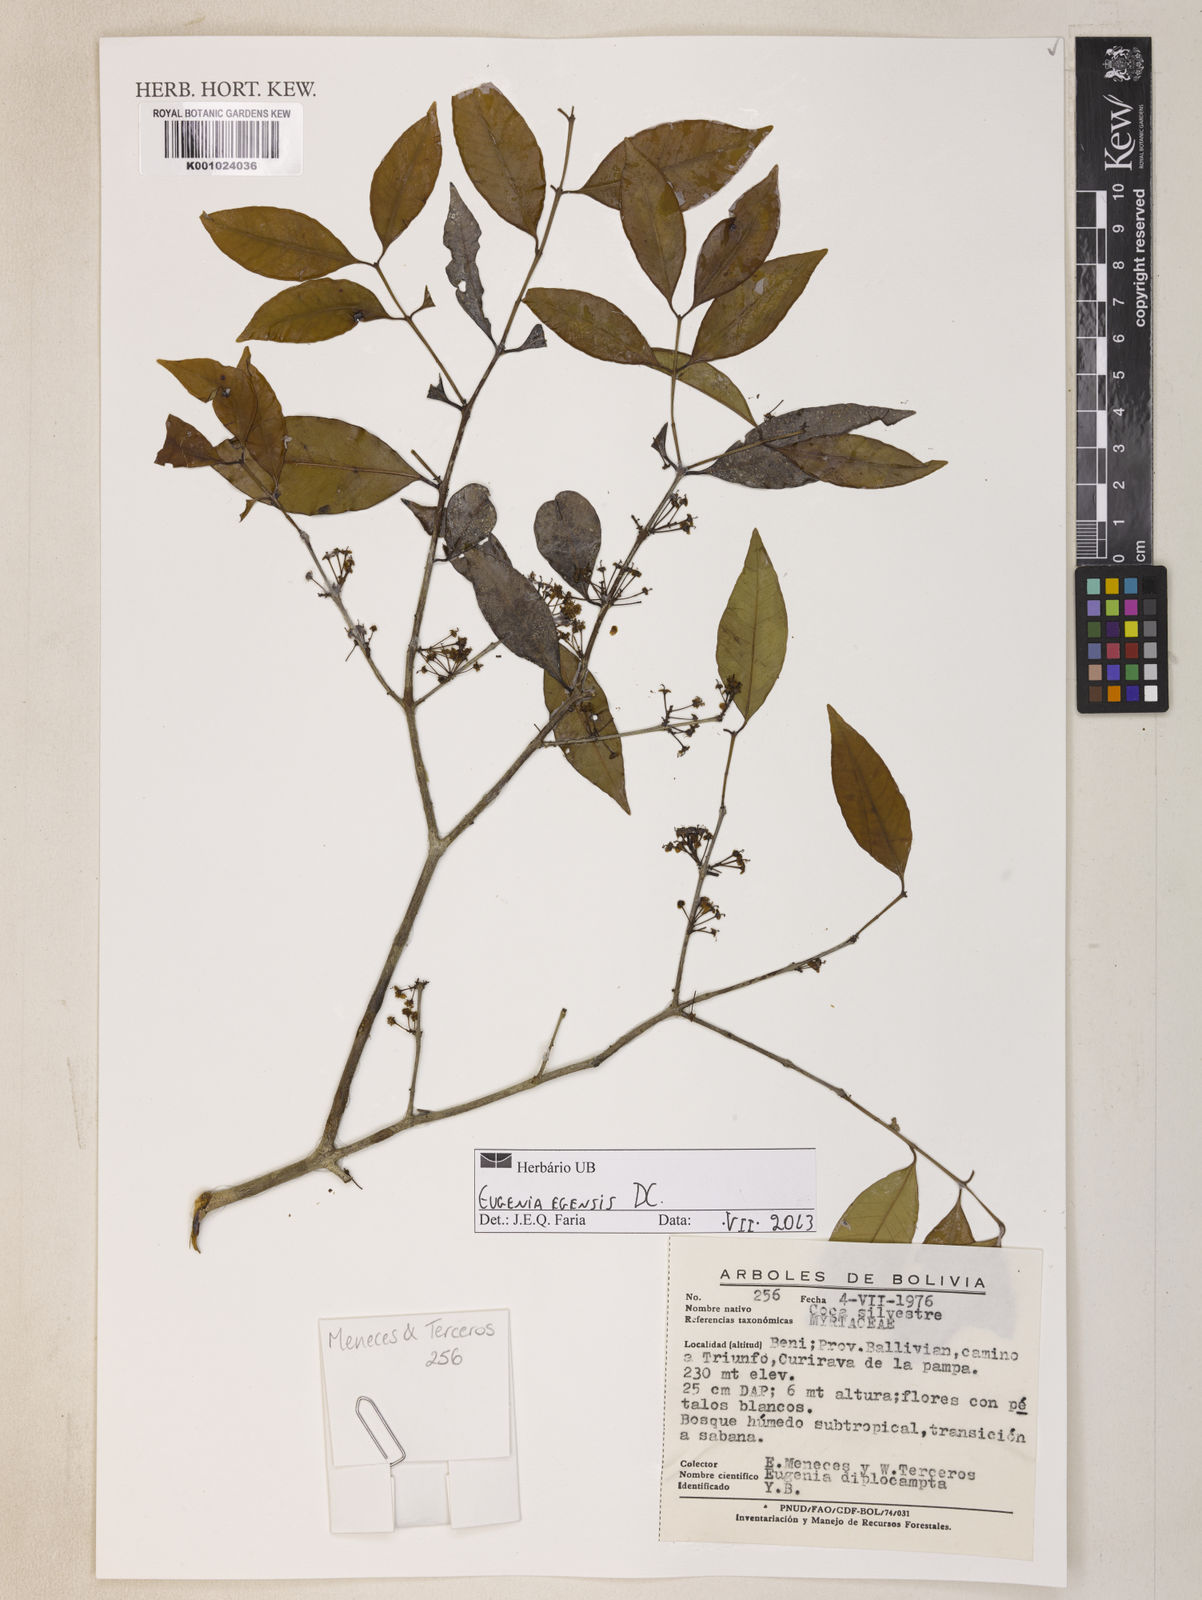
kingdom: Plantae
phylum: Tracheophyta
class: Magnoliopsida
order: Myrtales
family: Myrtaceae
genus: Eugenia
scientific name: Eugenia egensis
